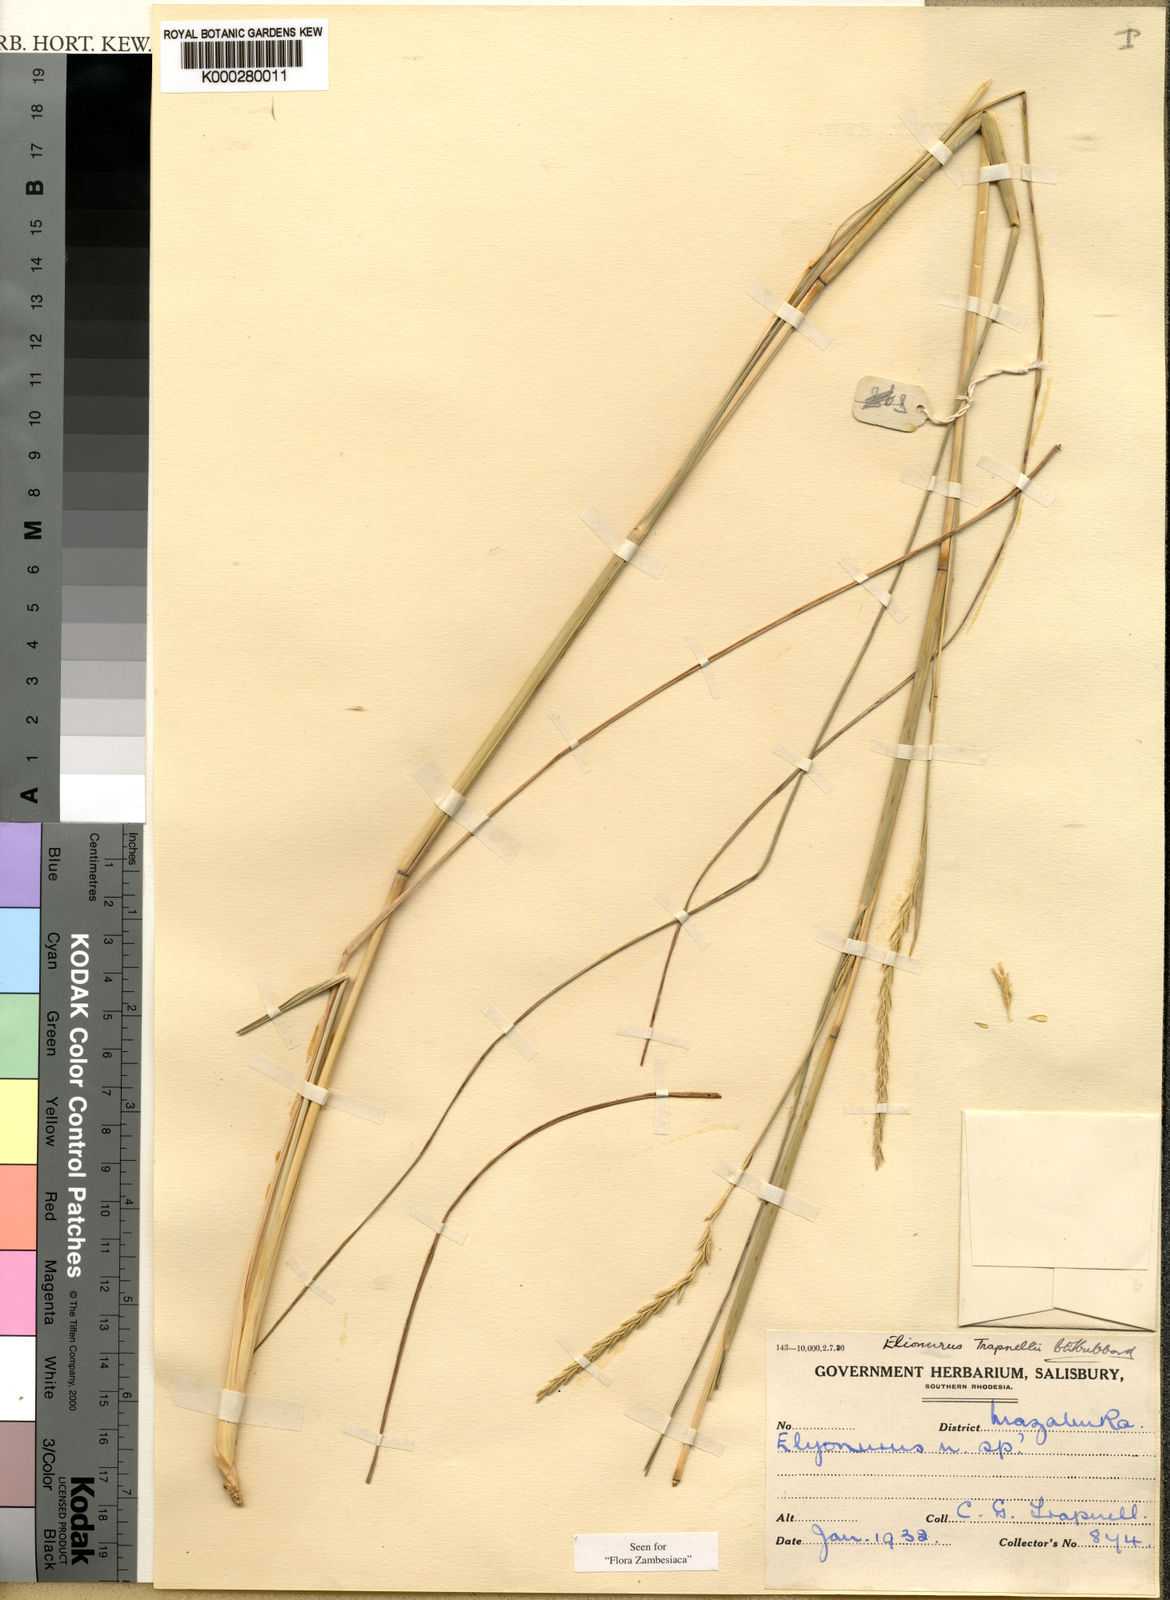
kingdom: Plantae
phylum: Tracheophyta
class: Liliopsida
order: Poales
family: Poaceae
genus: Elionurus
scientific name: Elionurus tripsacoides
